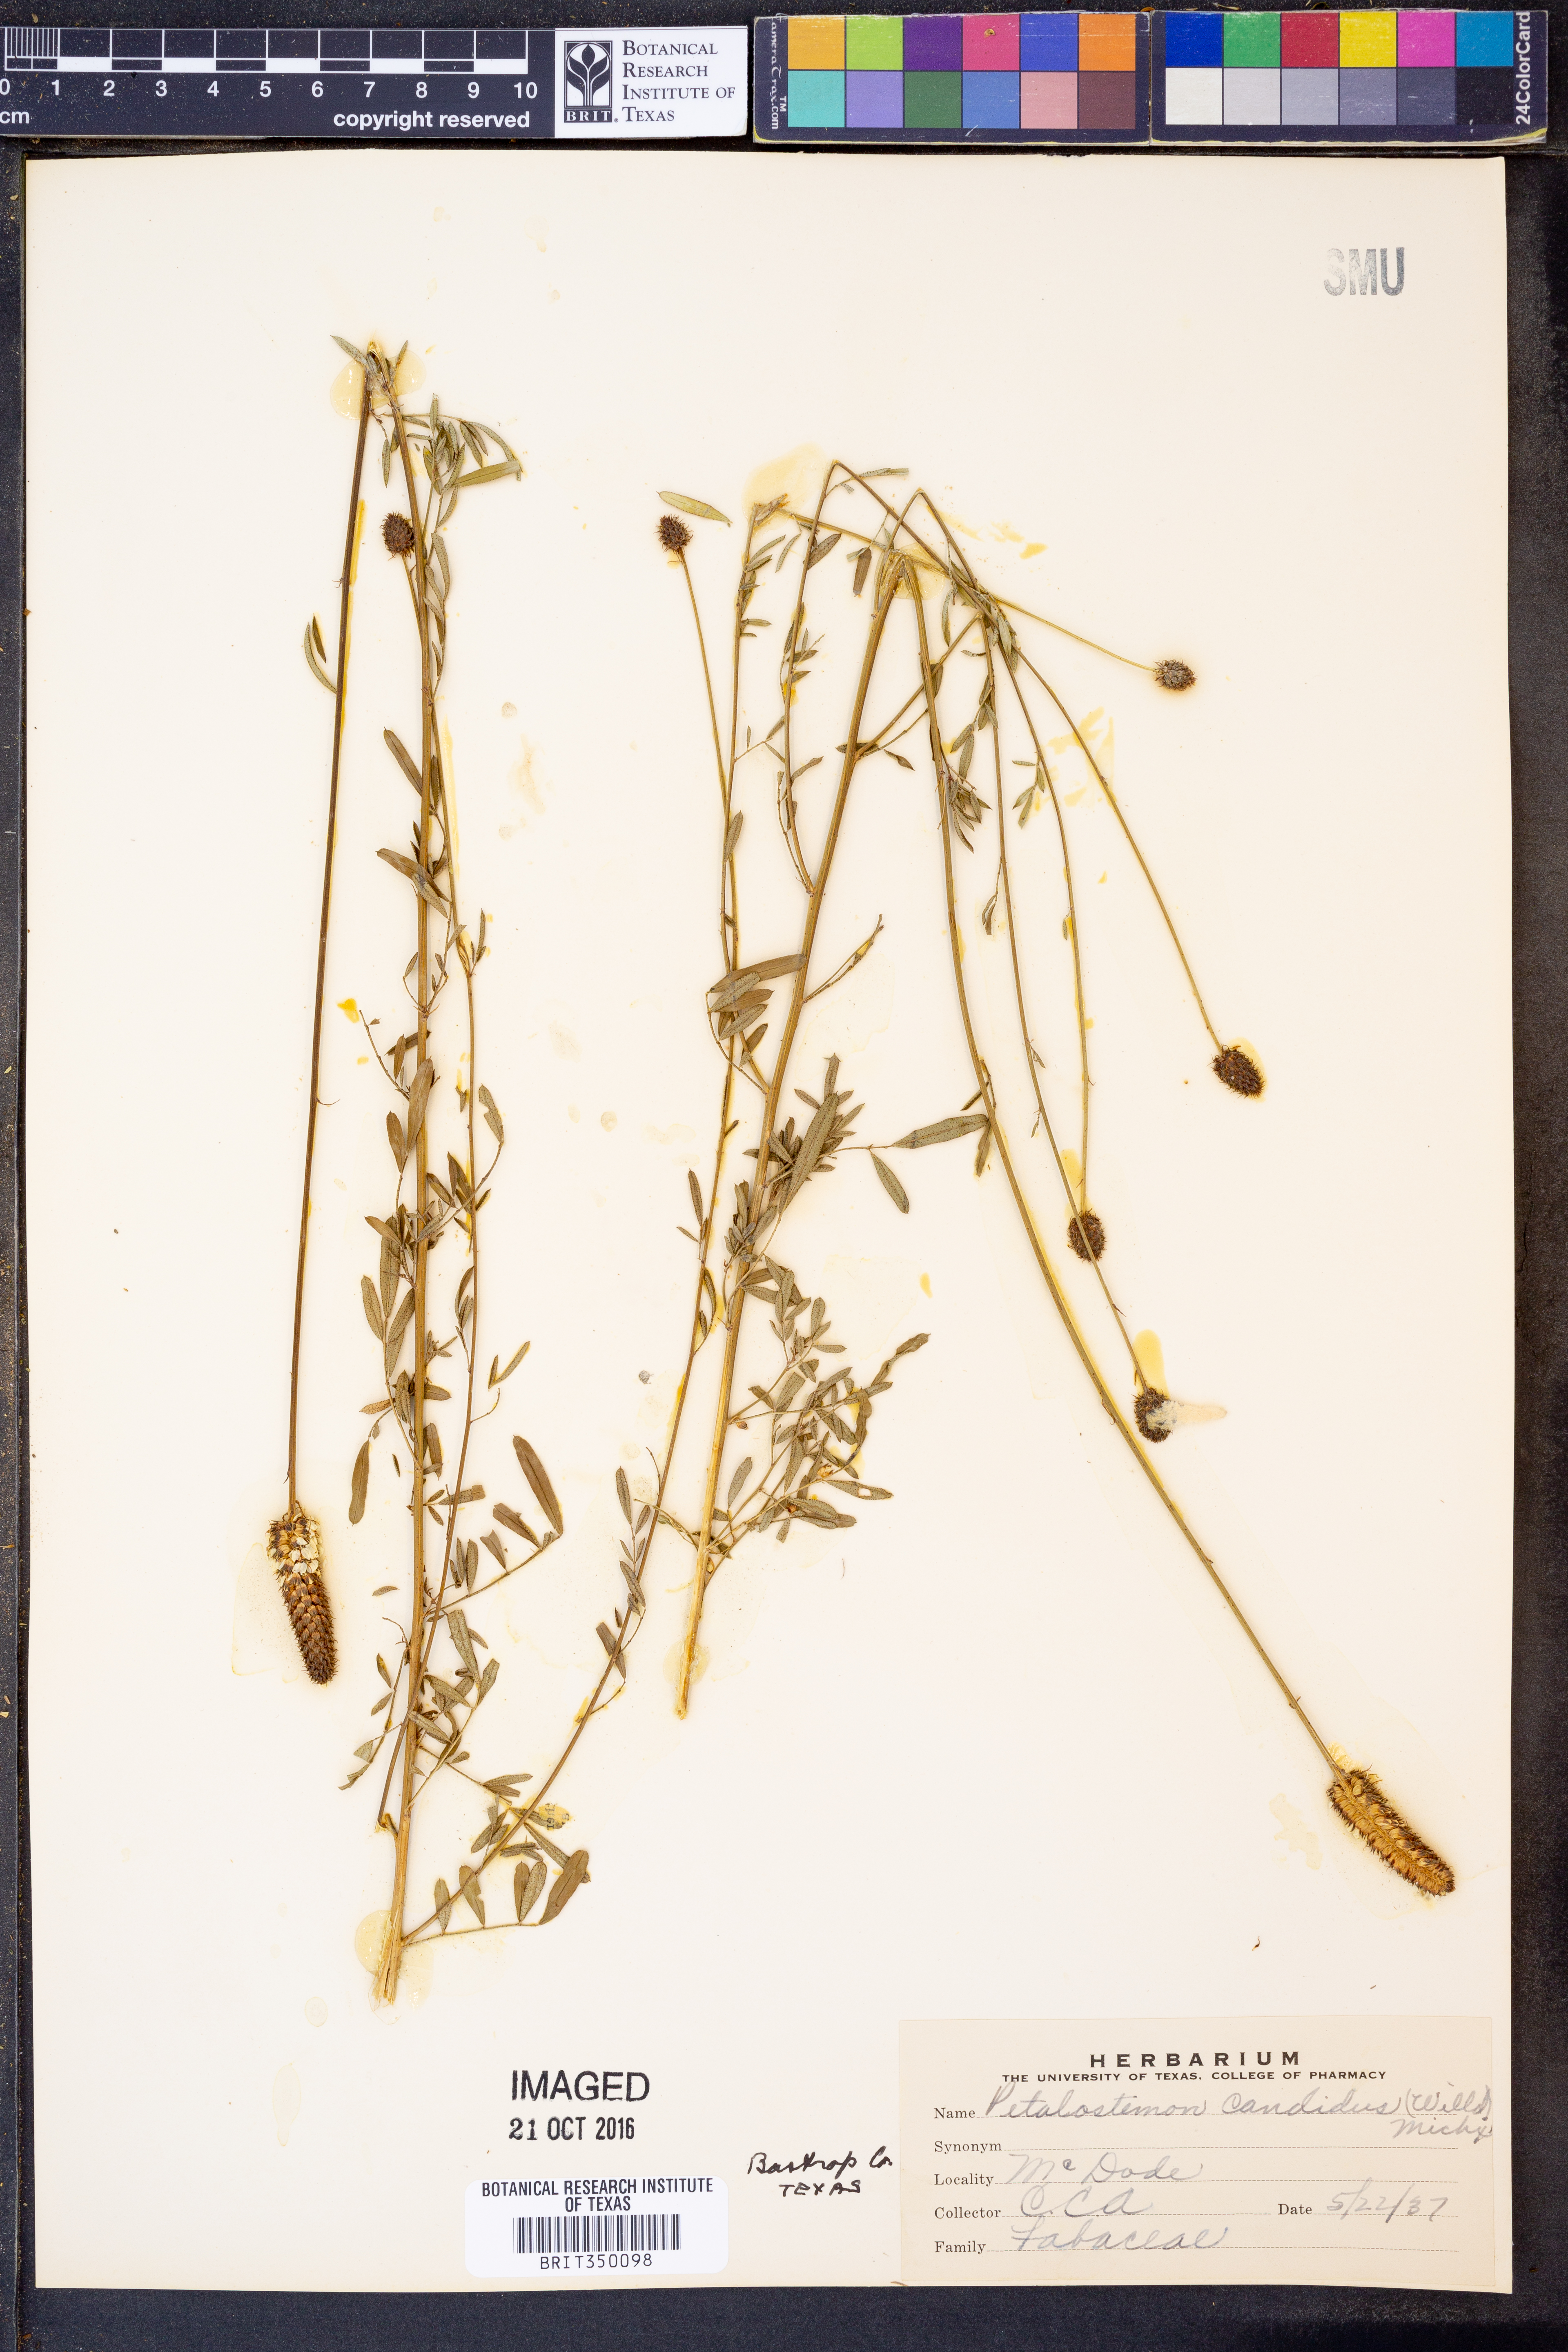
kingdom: Plantae
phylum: Tracheophyta
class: Magnoliopsida
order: Fabales
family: Fabaceae
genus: Dalea
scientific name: Dalea candida
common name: White prairie-clover
